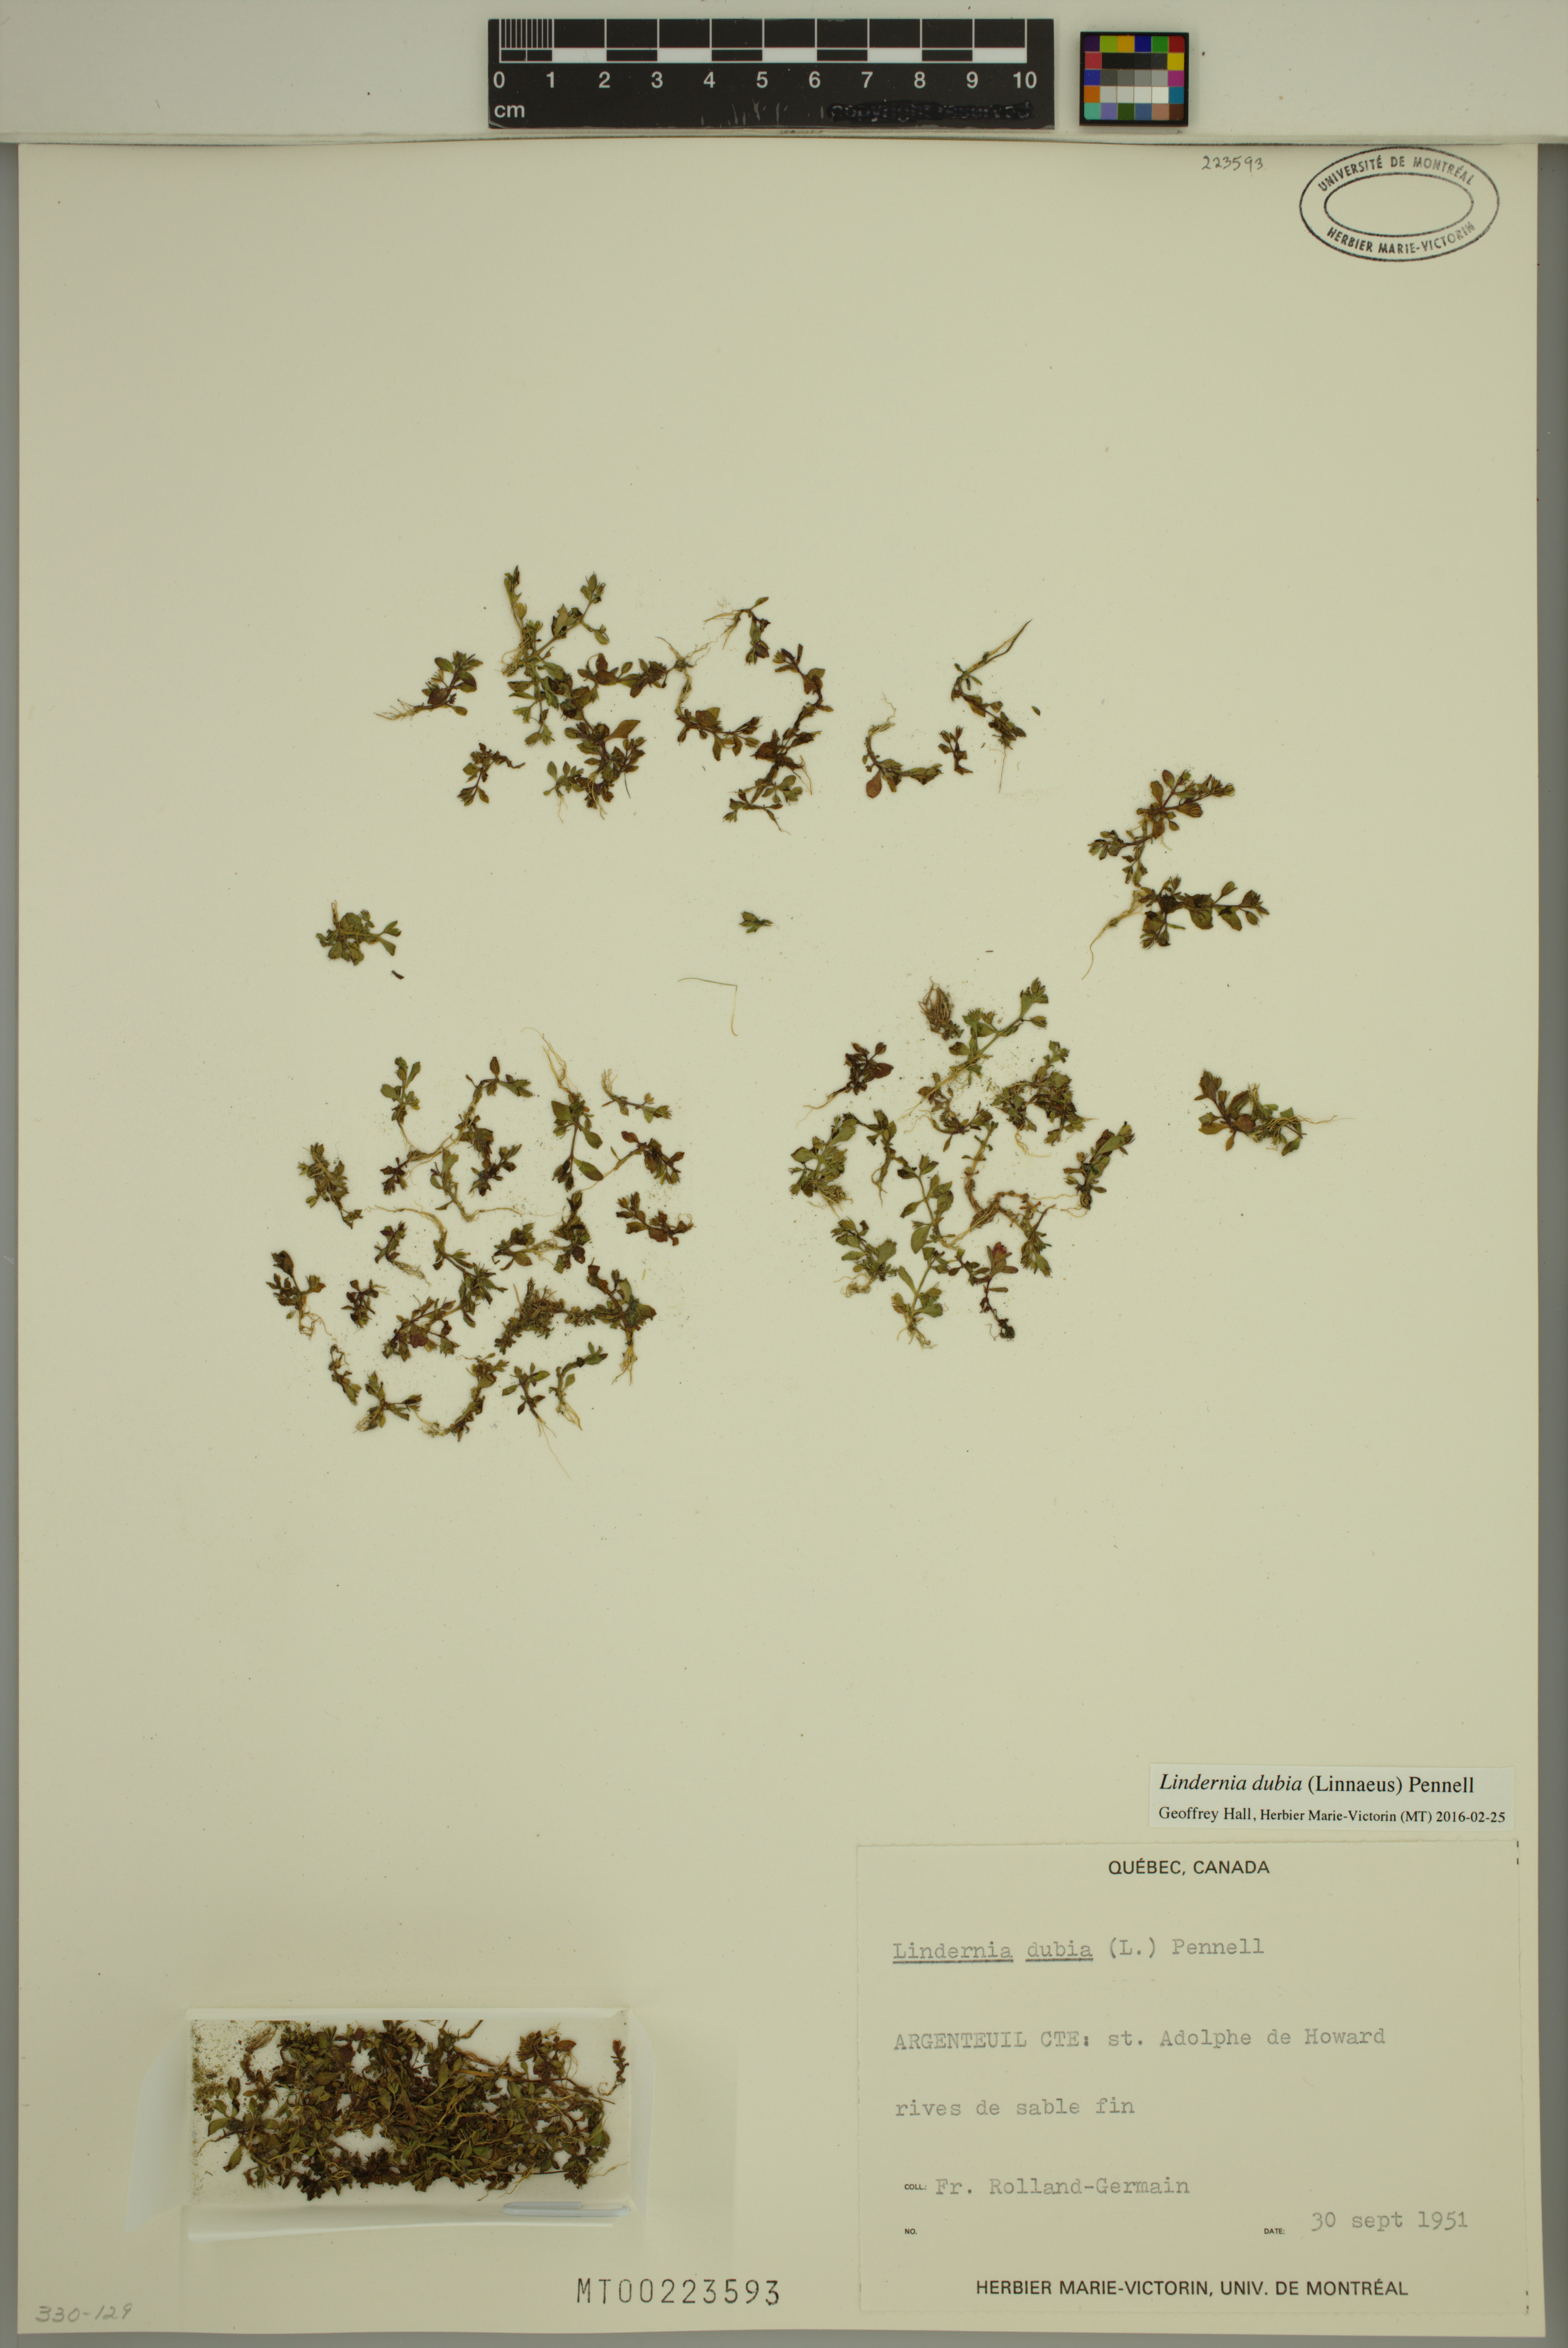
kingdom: Plantae
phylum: Tracheophyta
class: Magnoliopsida
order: Lamiales
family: Linderniaceae
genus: Lindernia
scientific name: Lindernia dubia
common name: Annual false pimpernel
